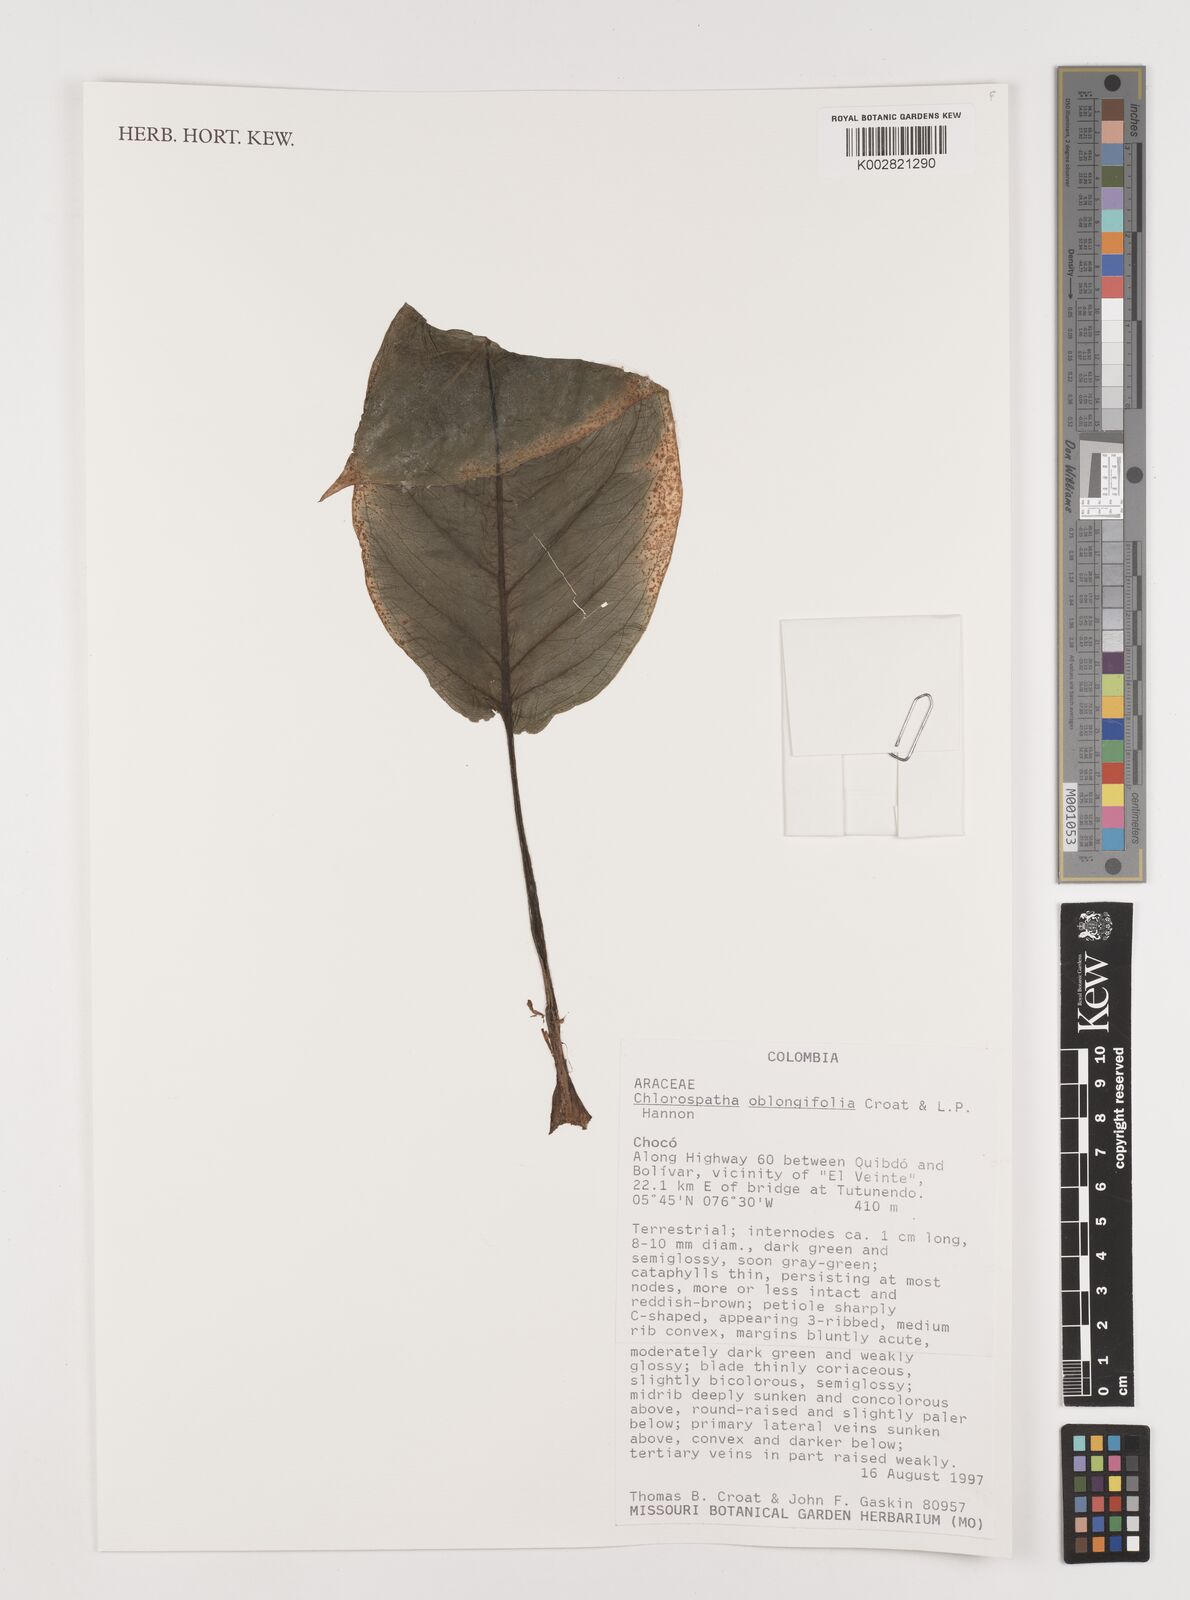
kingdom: Plantae
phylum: Tracheophyta
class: Liliopsida
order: Alismatales
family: Araceae
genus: Chlorospatha
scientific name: Chlorospatha oblongifolia
